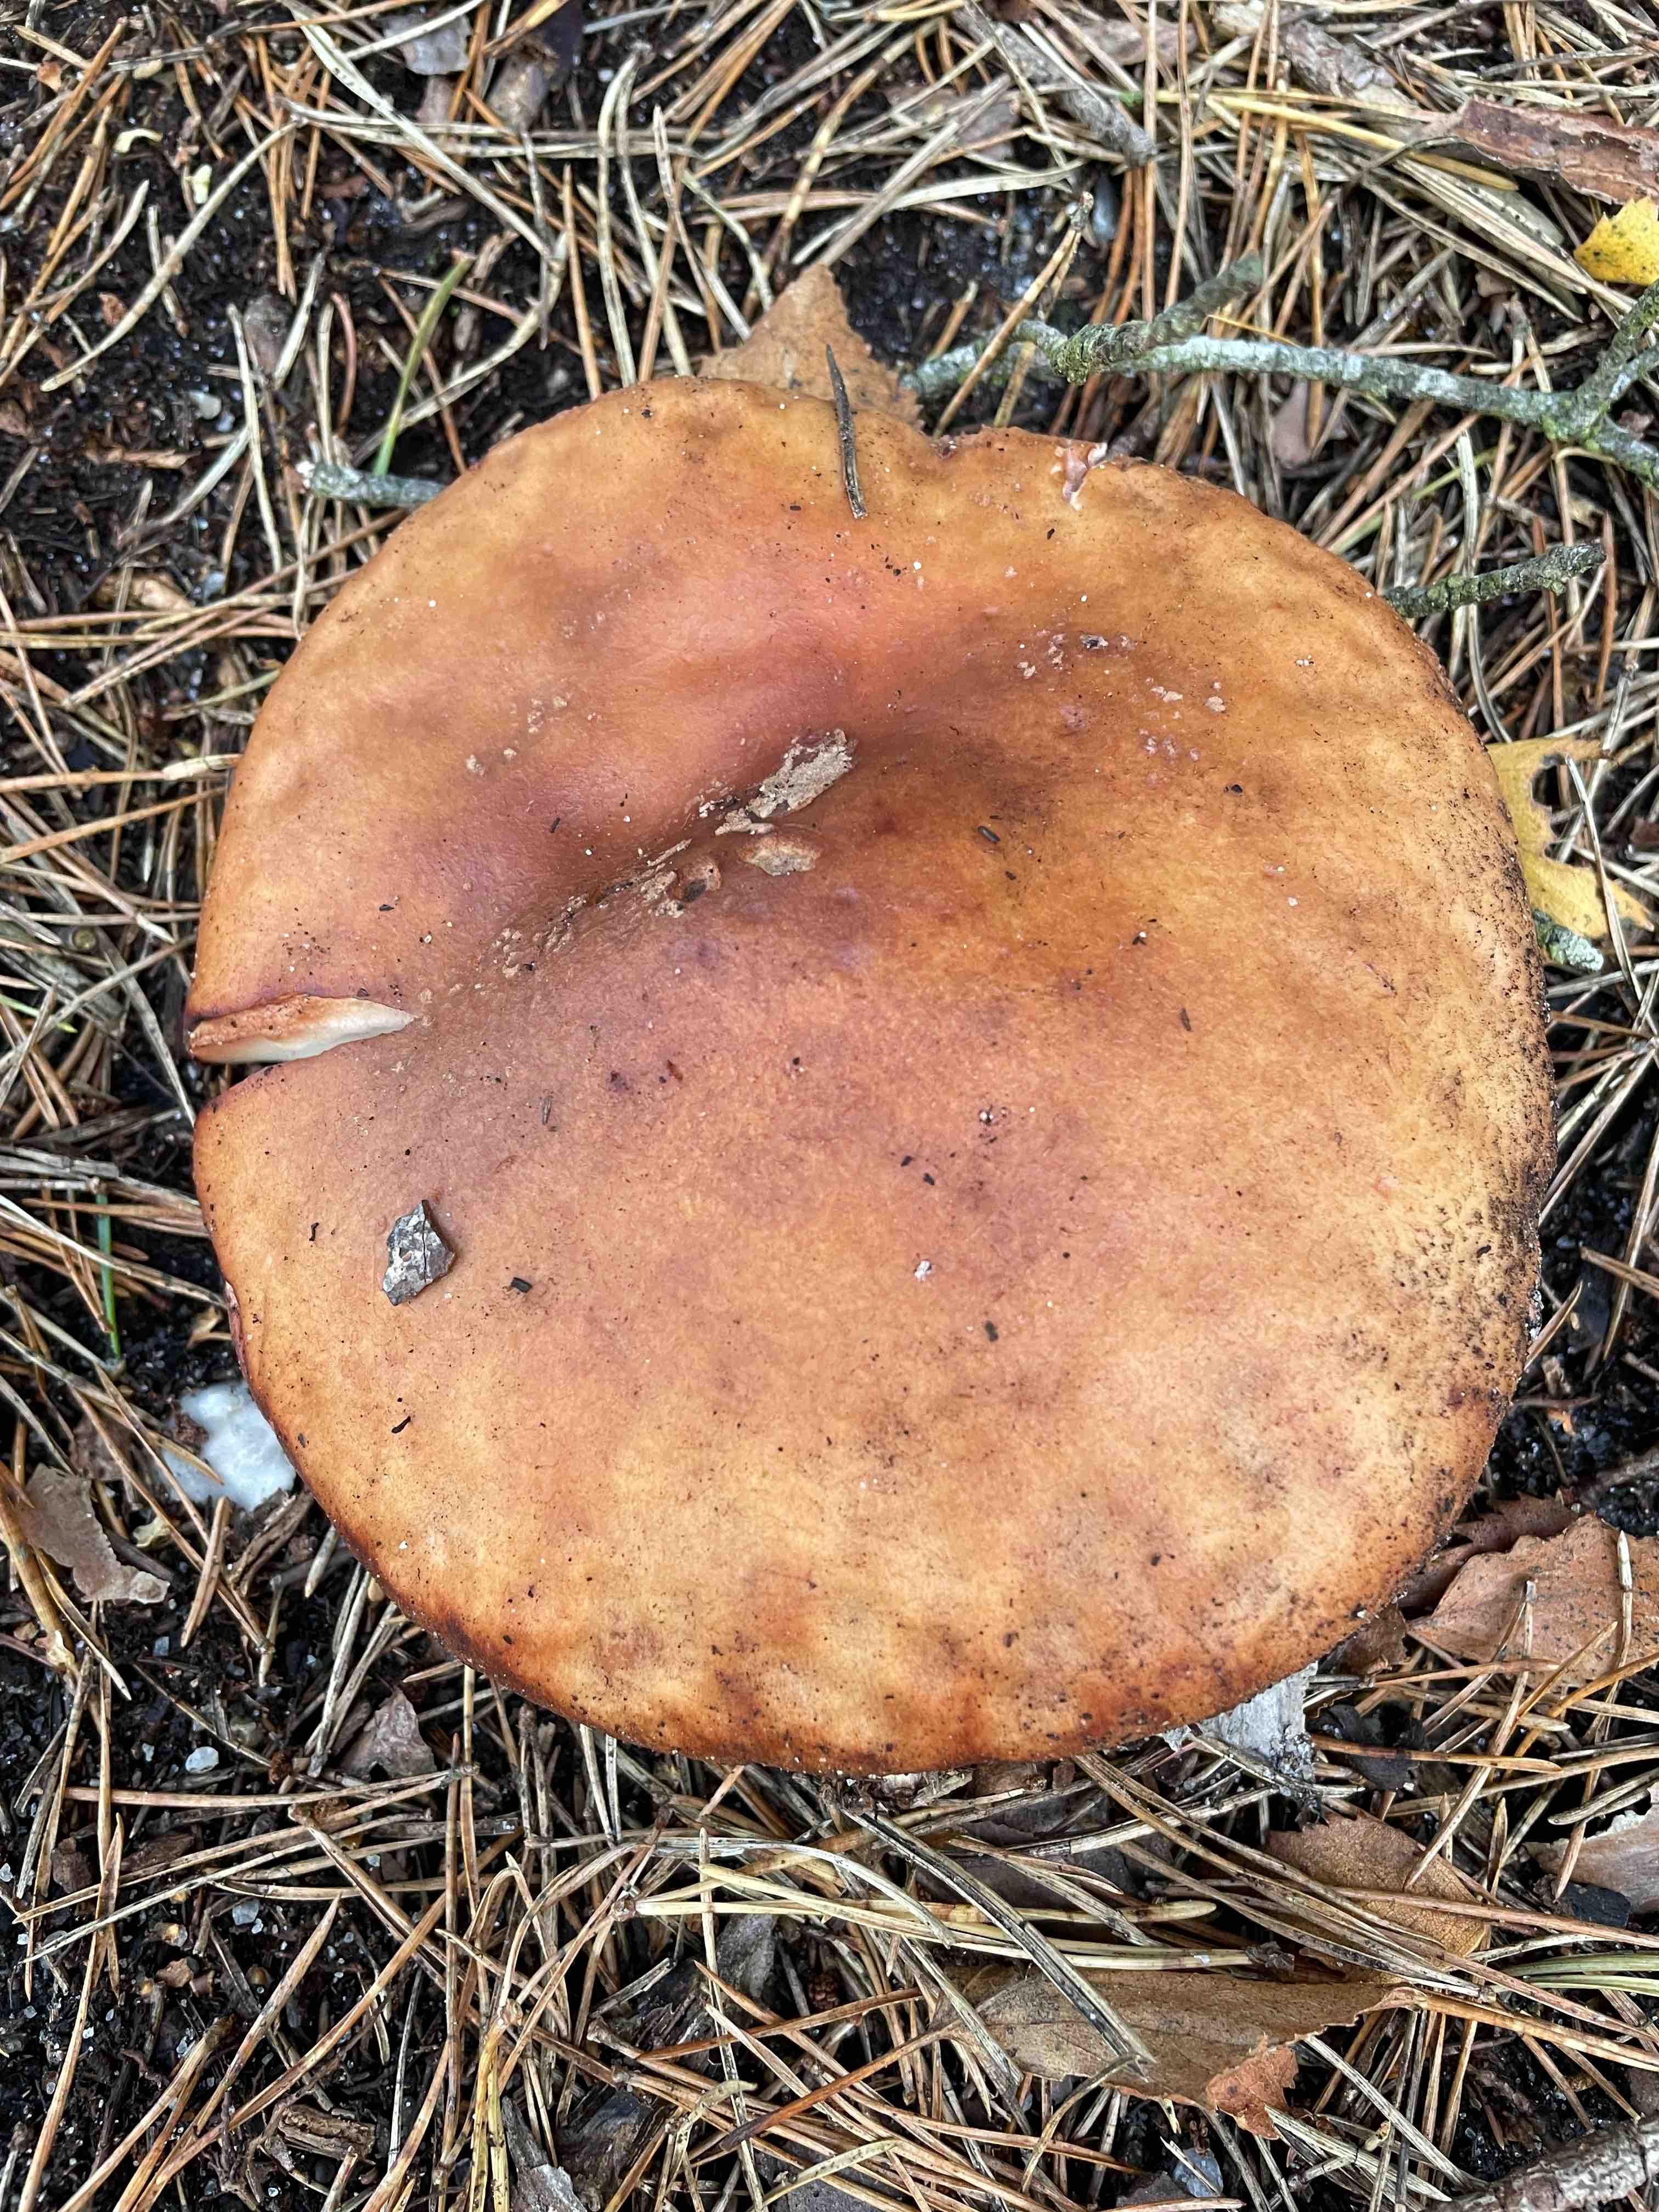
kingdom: Fungi
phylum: Basidiomycota
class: Agaricomycetes
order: Agaricales
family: Amanitaceae
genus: Amanita
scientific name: Amanita rubescens
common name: rødmende fluesvamp
